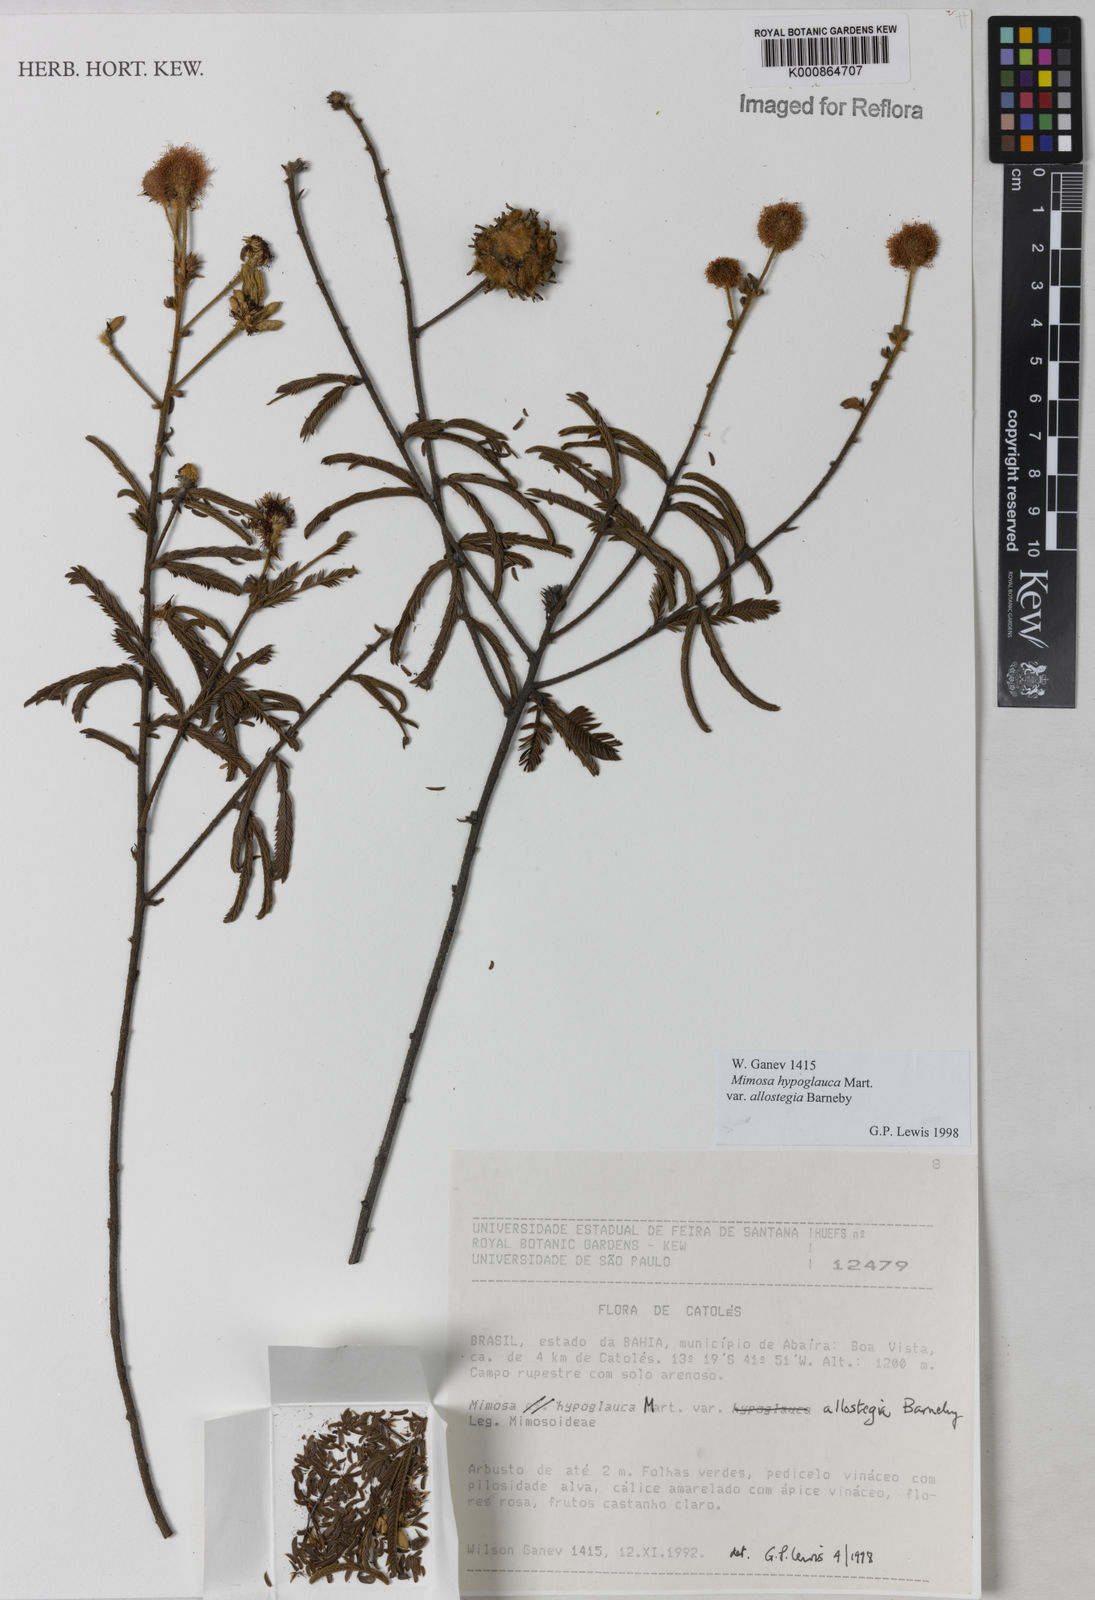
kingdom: Plantae
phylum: Tracheophyta
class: Magnoliopsida
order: Fabales
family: Fabaceae
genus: Mimosa
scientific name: Mimosa hypoglauca
